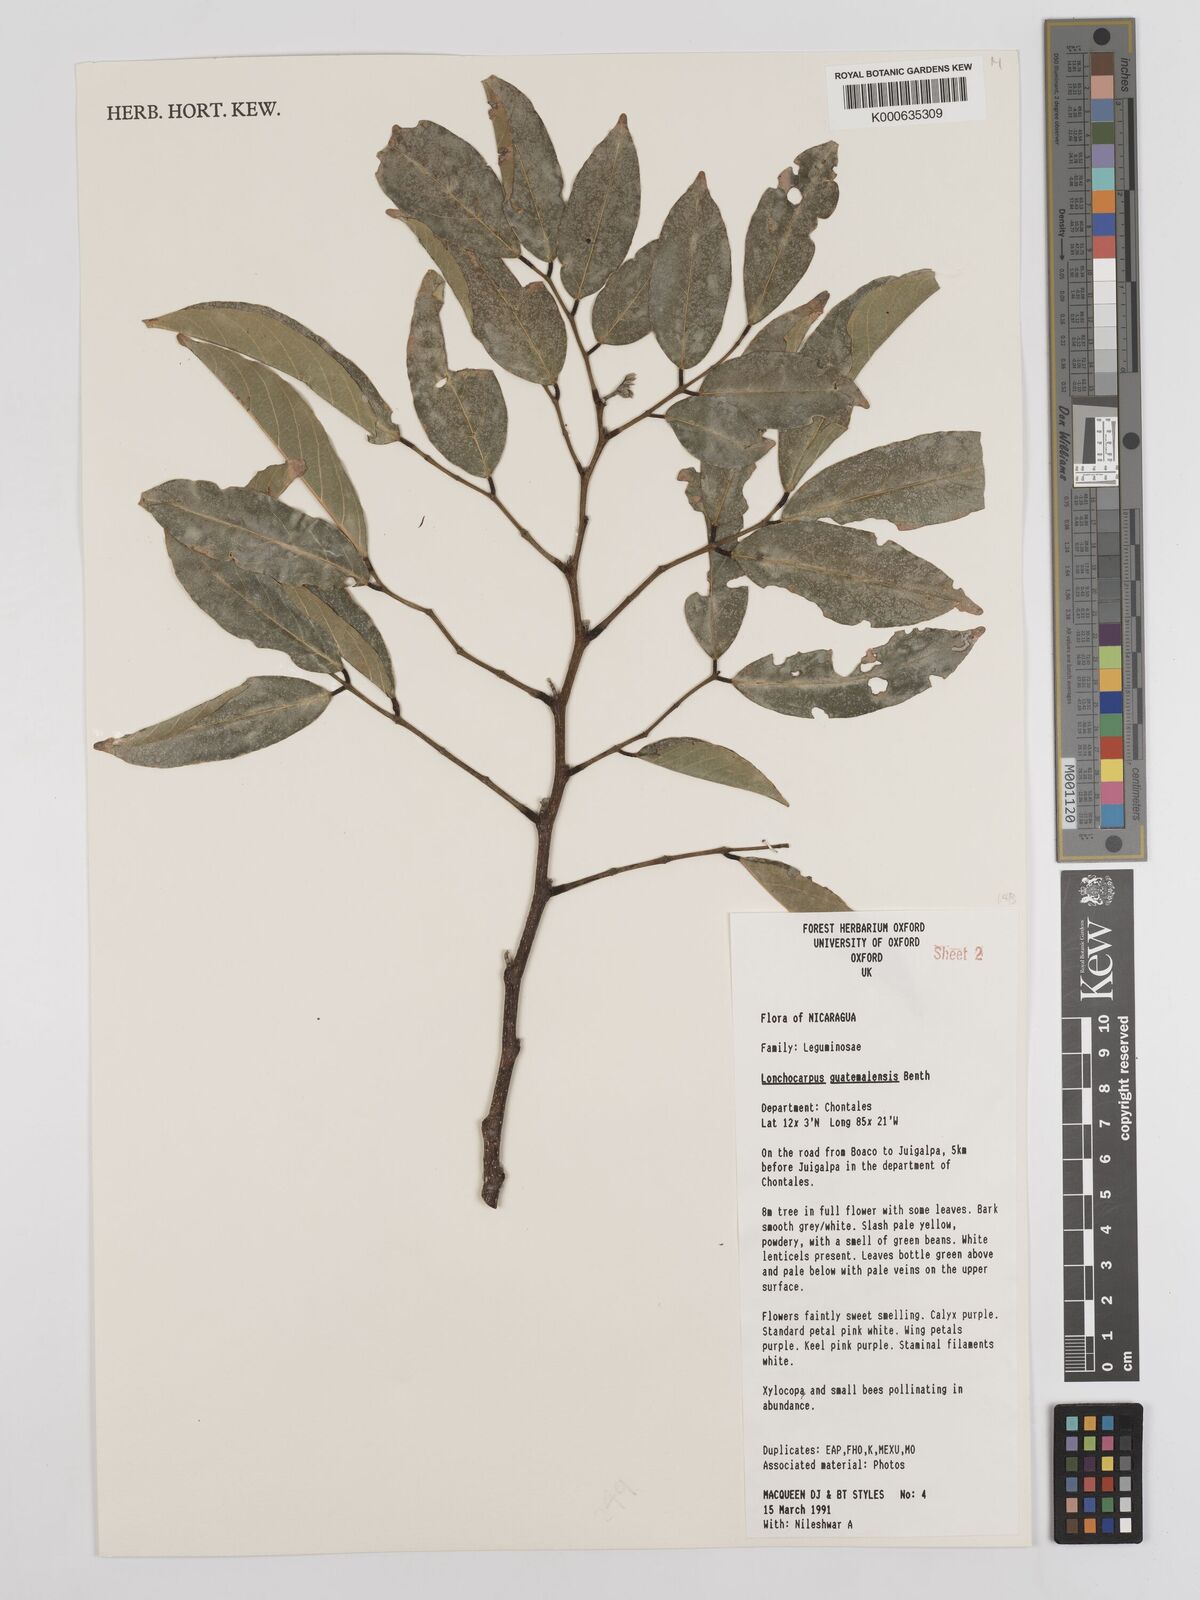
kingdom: Plantae
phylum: Tracheophyta
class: Magnoliopsida
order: Fabales
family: Fabaceae
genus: Lonchocarpus
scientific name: Lonchocarpus guatemalensis
